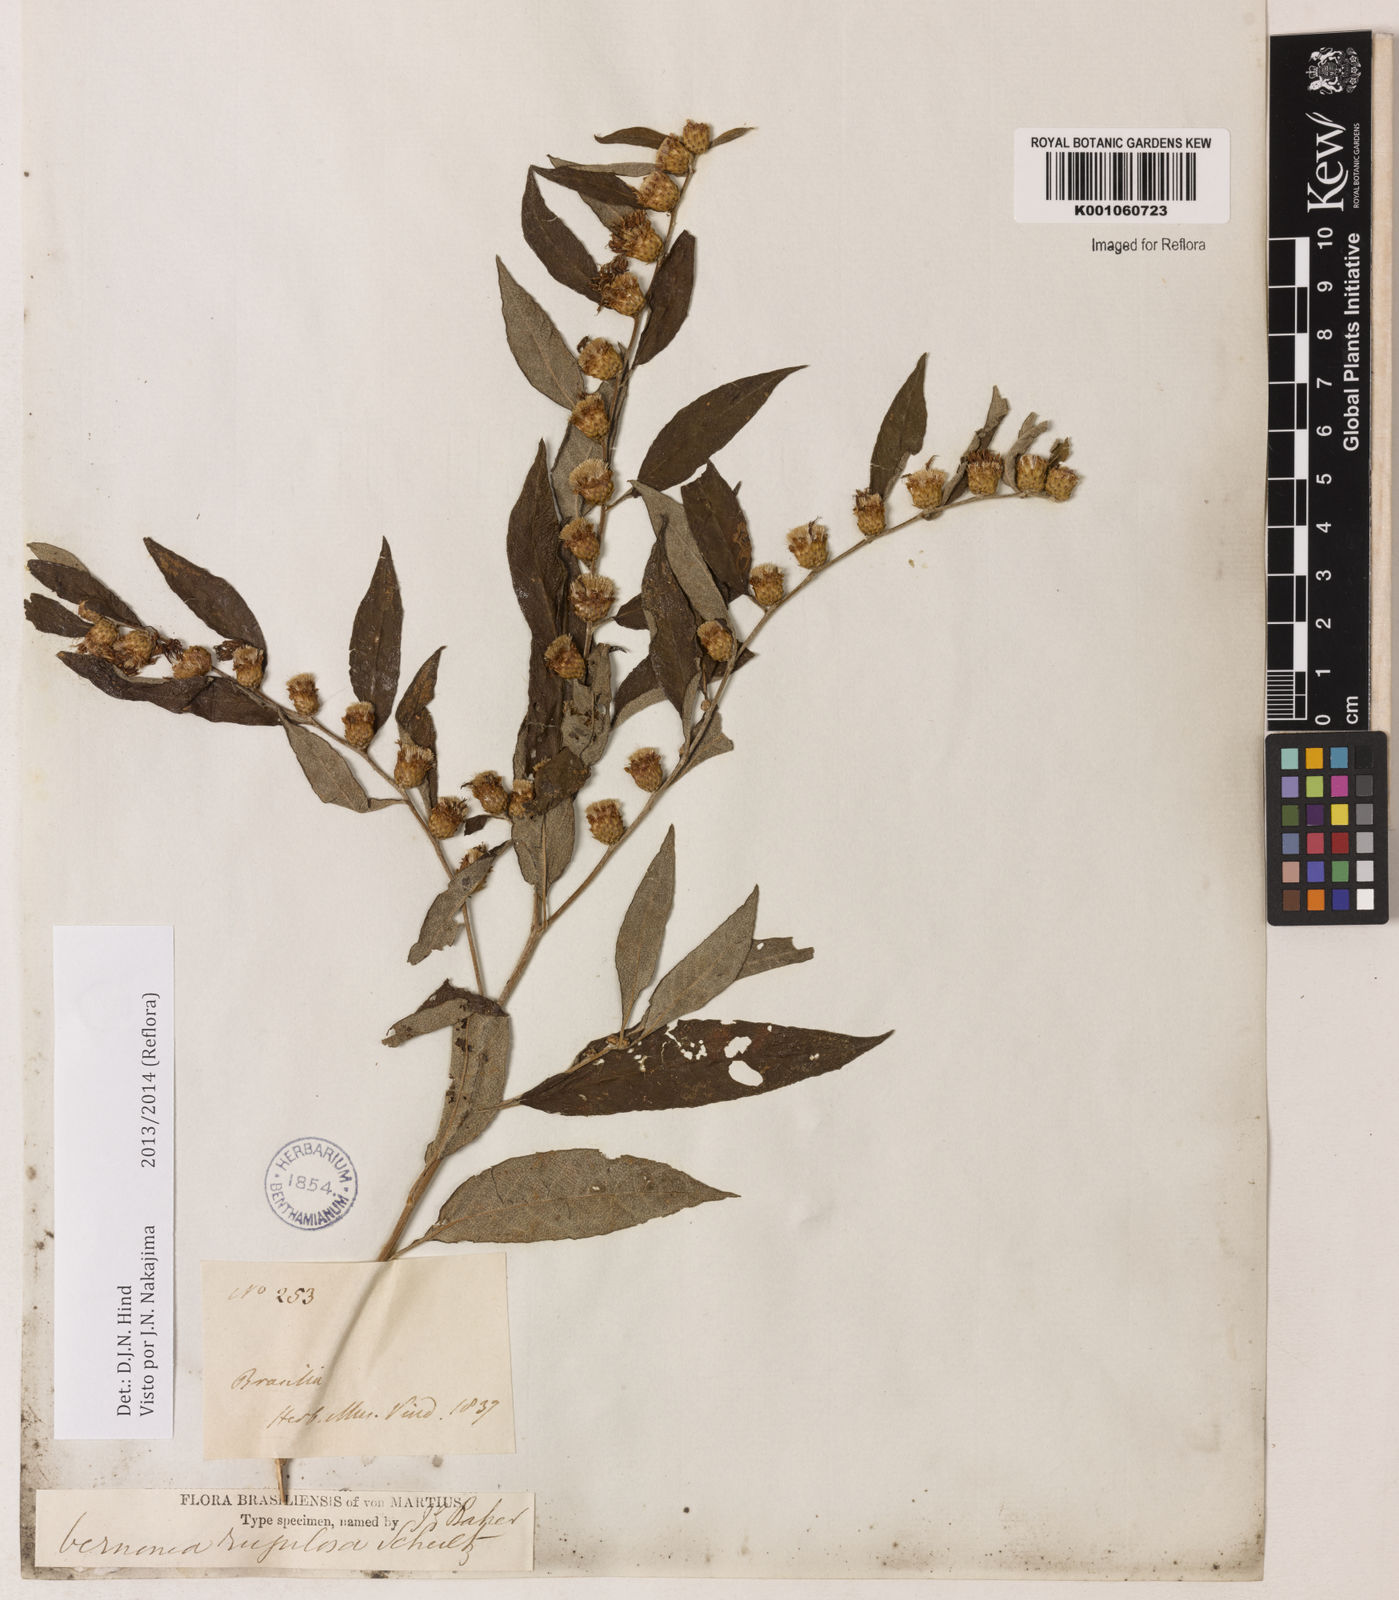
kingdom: Plantae
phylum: Tracheophyta
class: Magnoliopsida
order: Asterales
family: Asteraceae
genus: Lessingianthus
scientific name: Lessingianthus rugulosus
